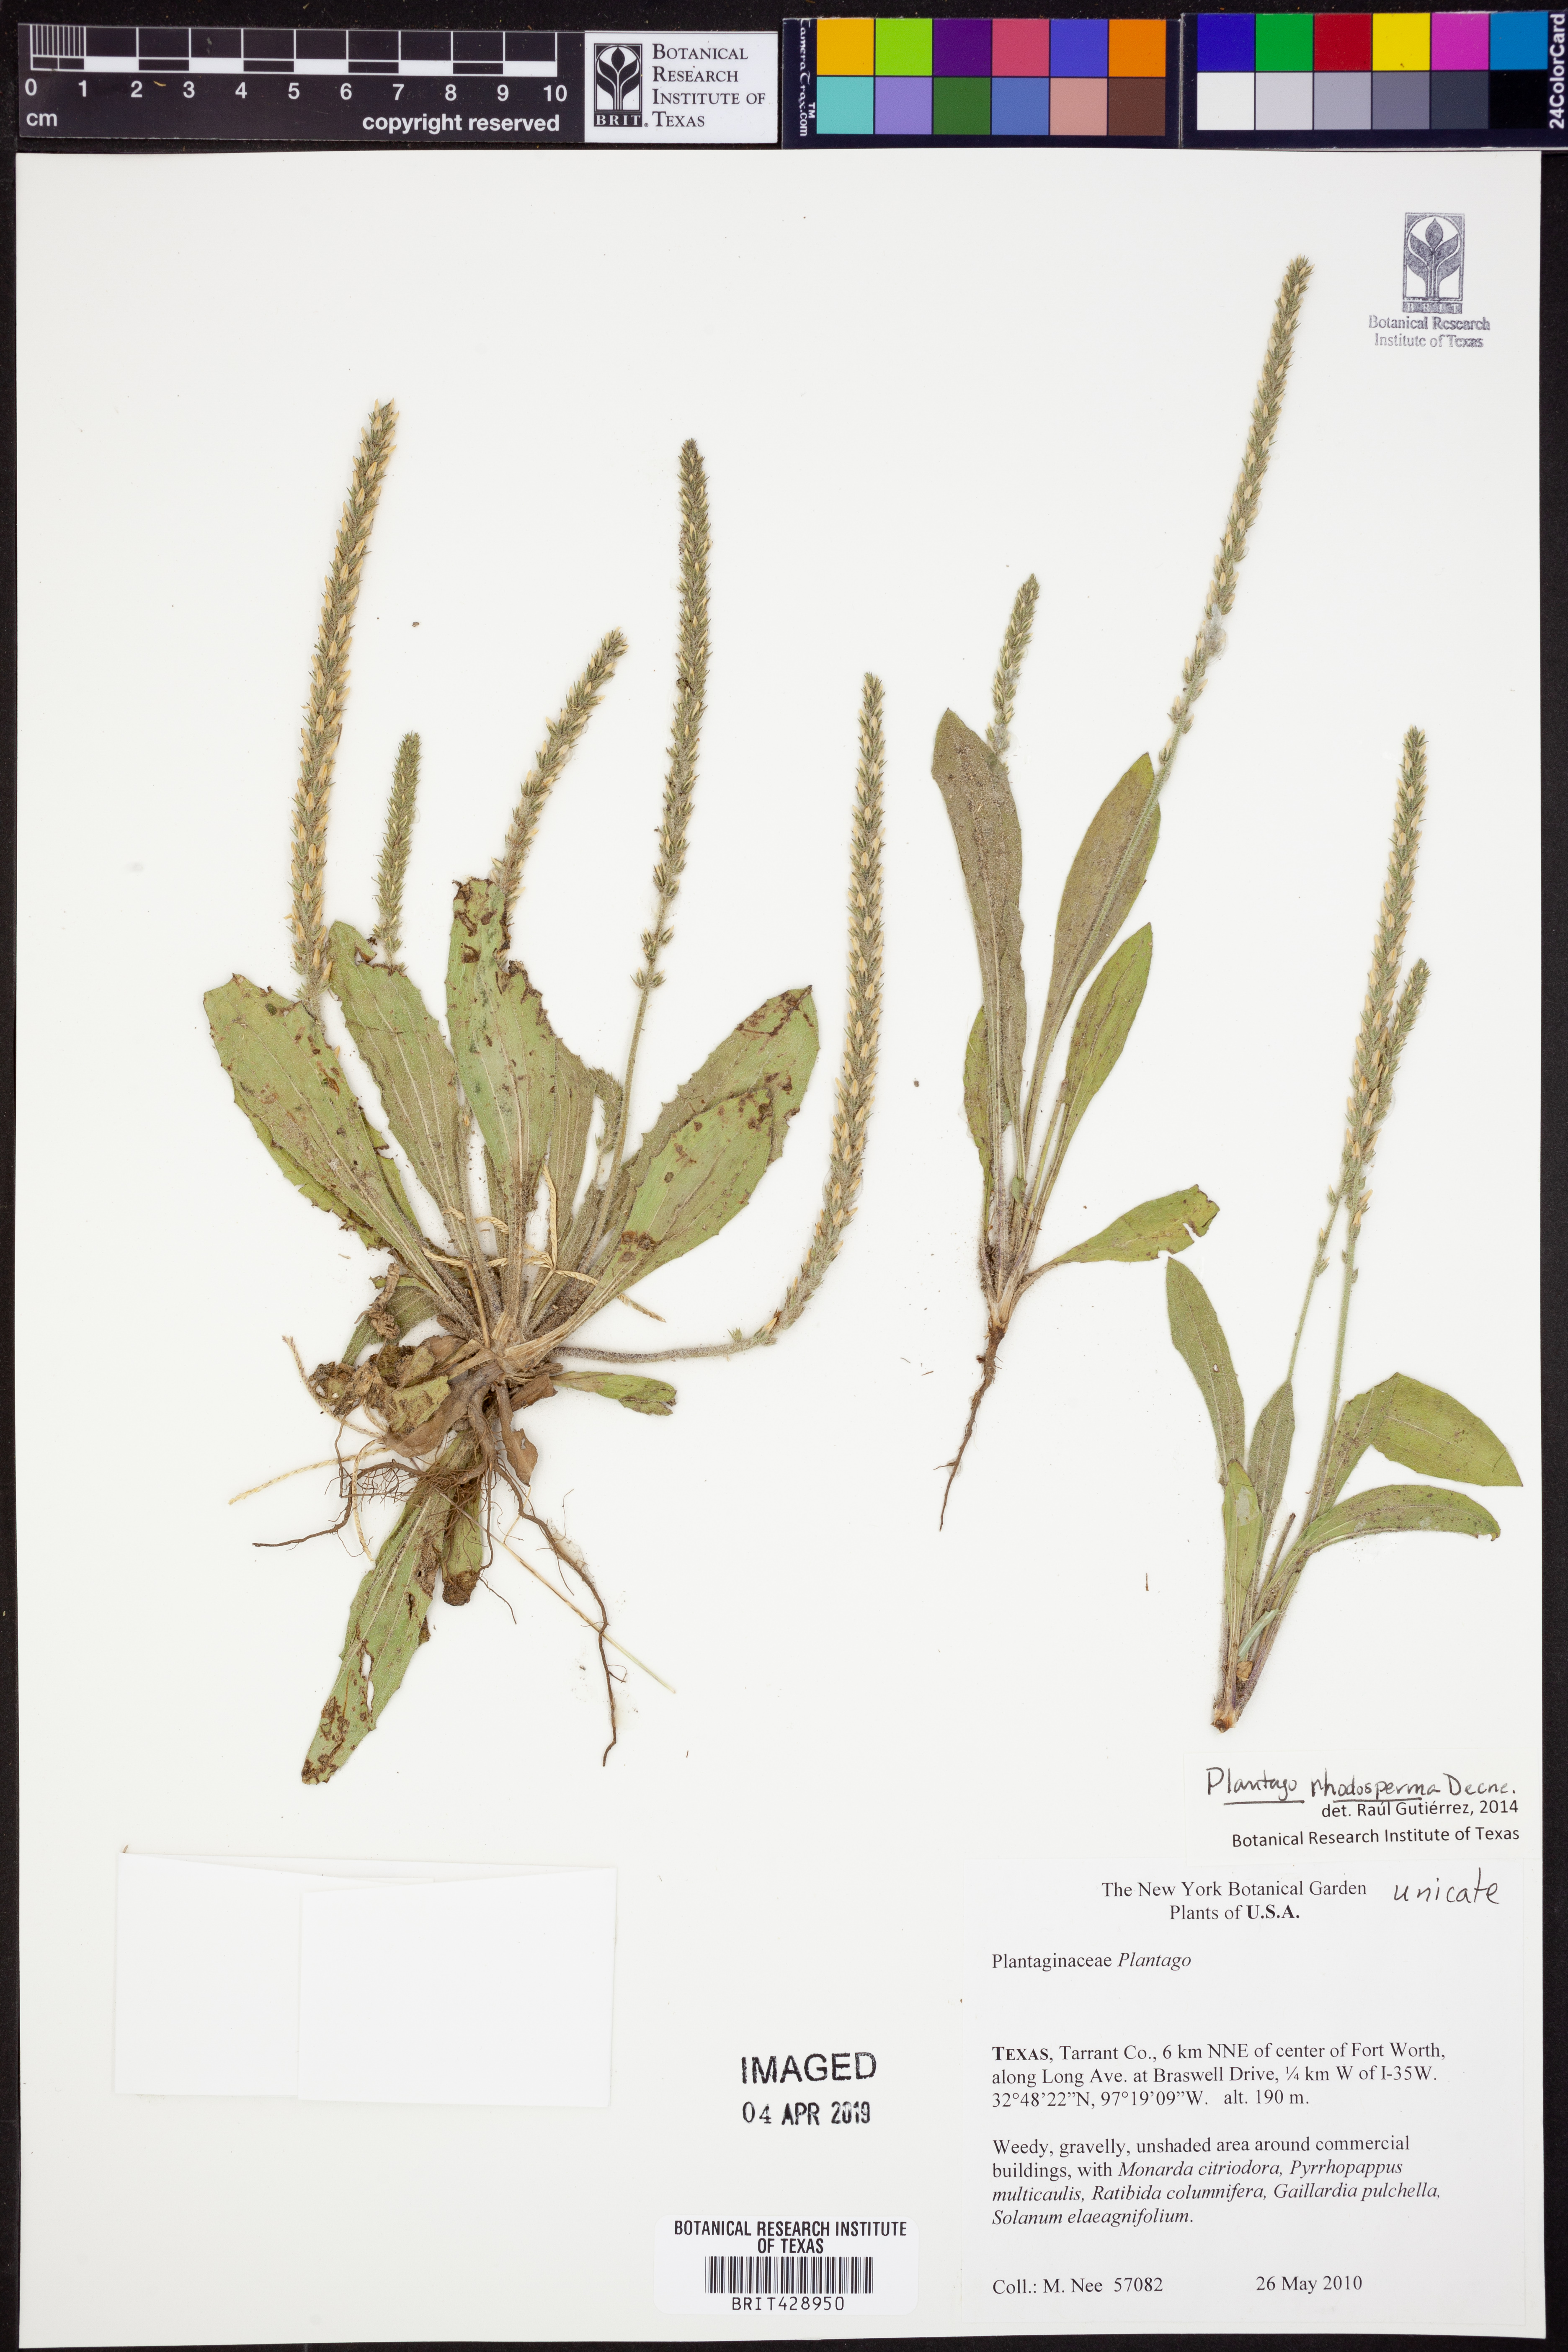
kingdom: Plantae
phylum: Tracheophyta
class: Magnoliopsida
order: Lamiales
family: Plantaginaceae
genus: Plantago
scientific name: Plantago rhodosperma
